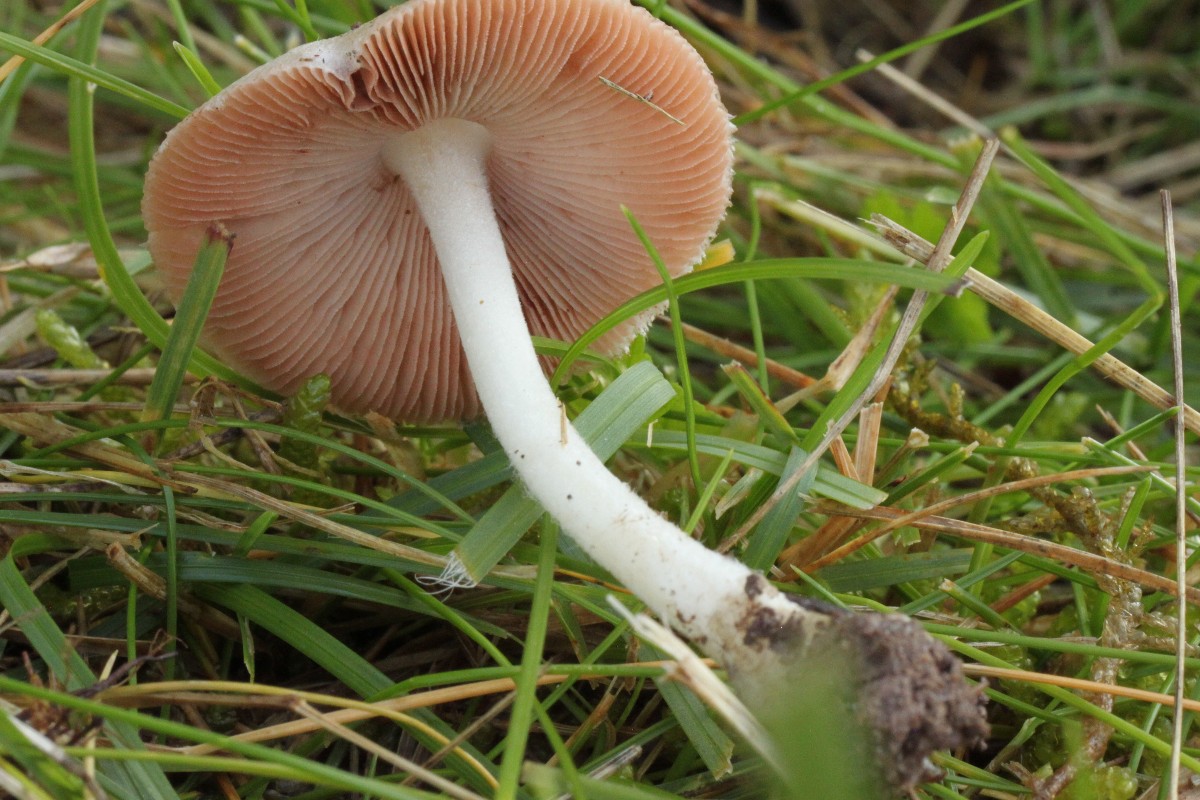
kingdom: Fungi
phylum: Basidiomycota
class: Agaricomycetes
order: Agaricales
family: Pluteaceae
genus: Volvariella
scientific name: Volvariella hypopithys
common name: dunstokket posesvamp
